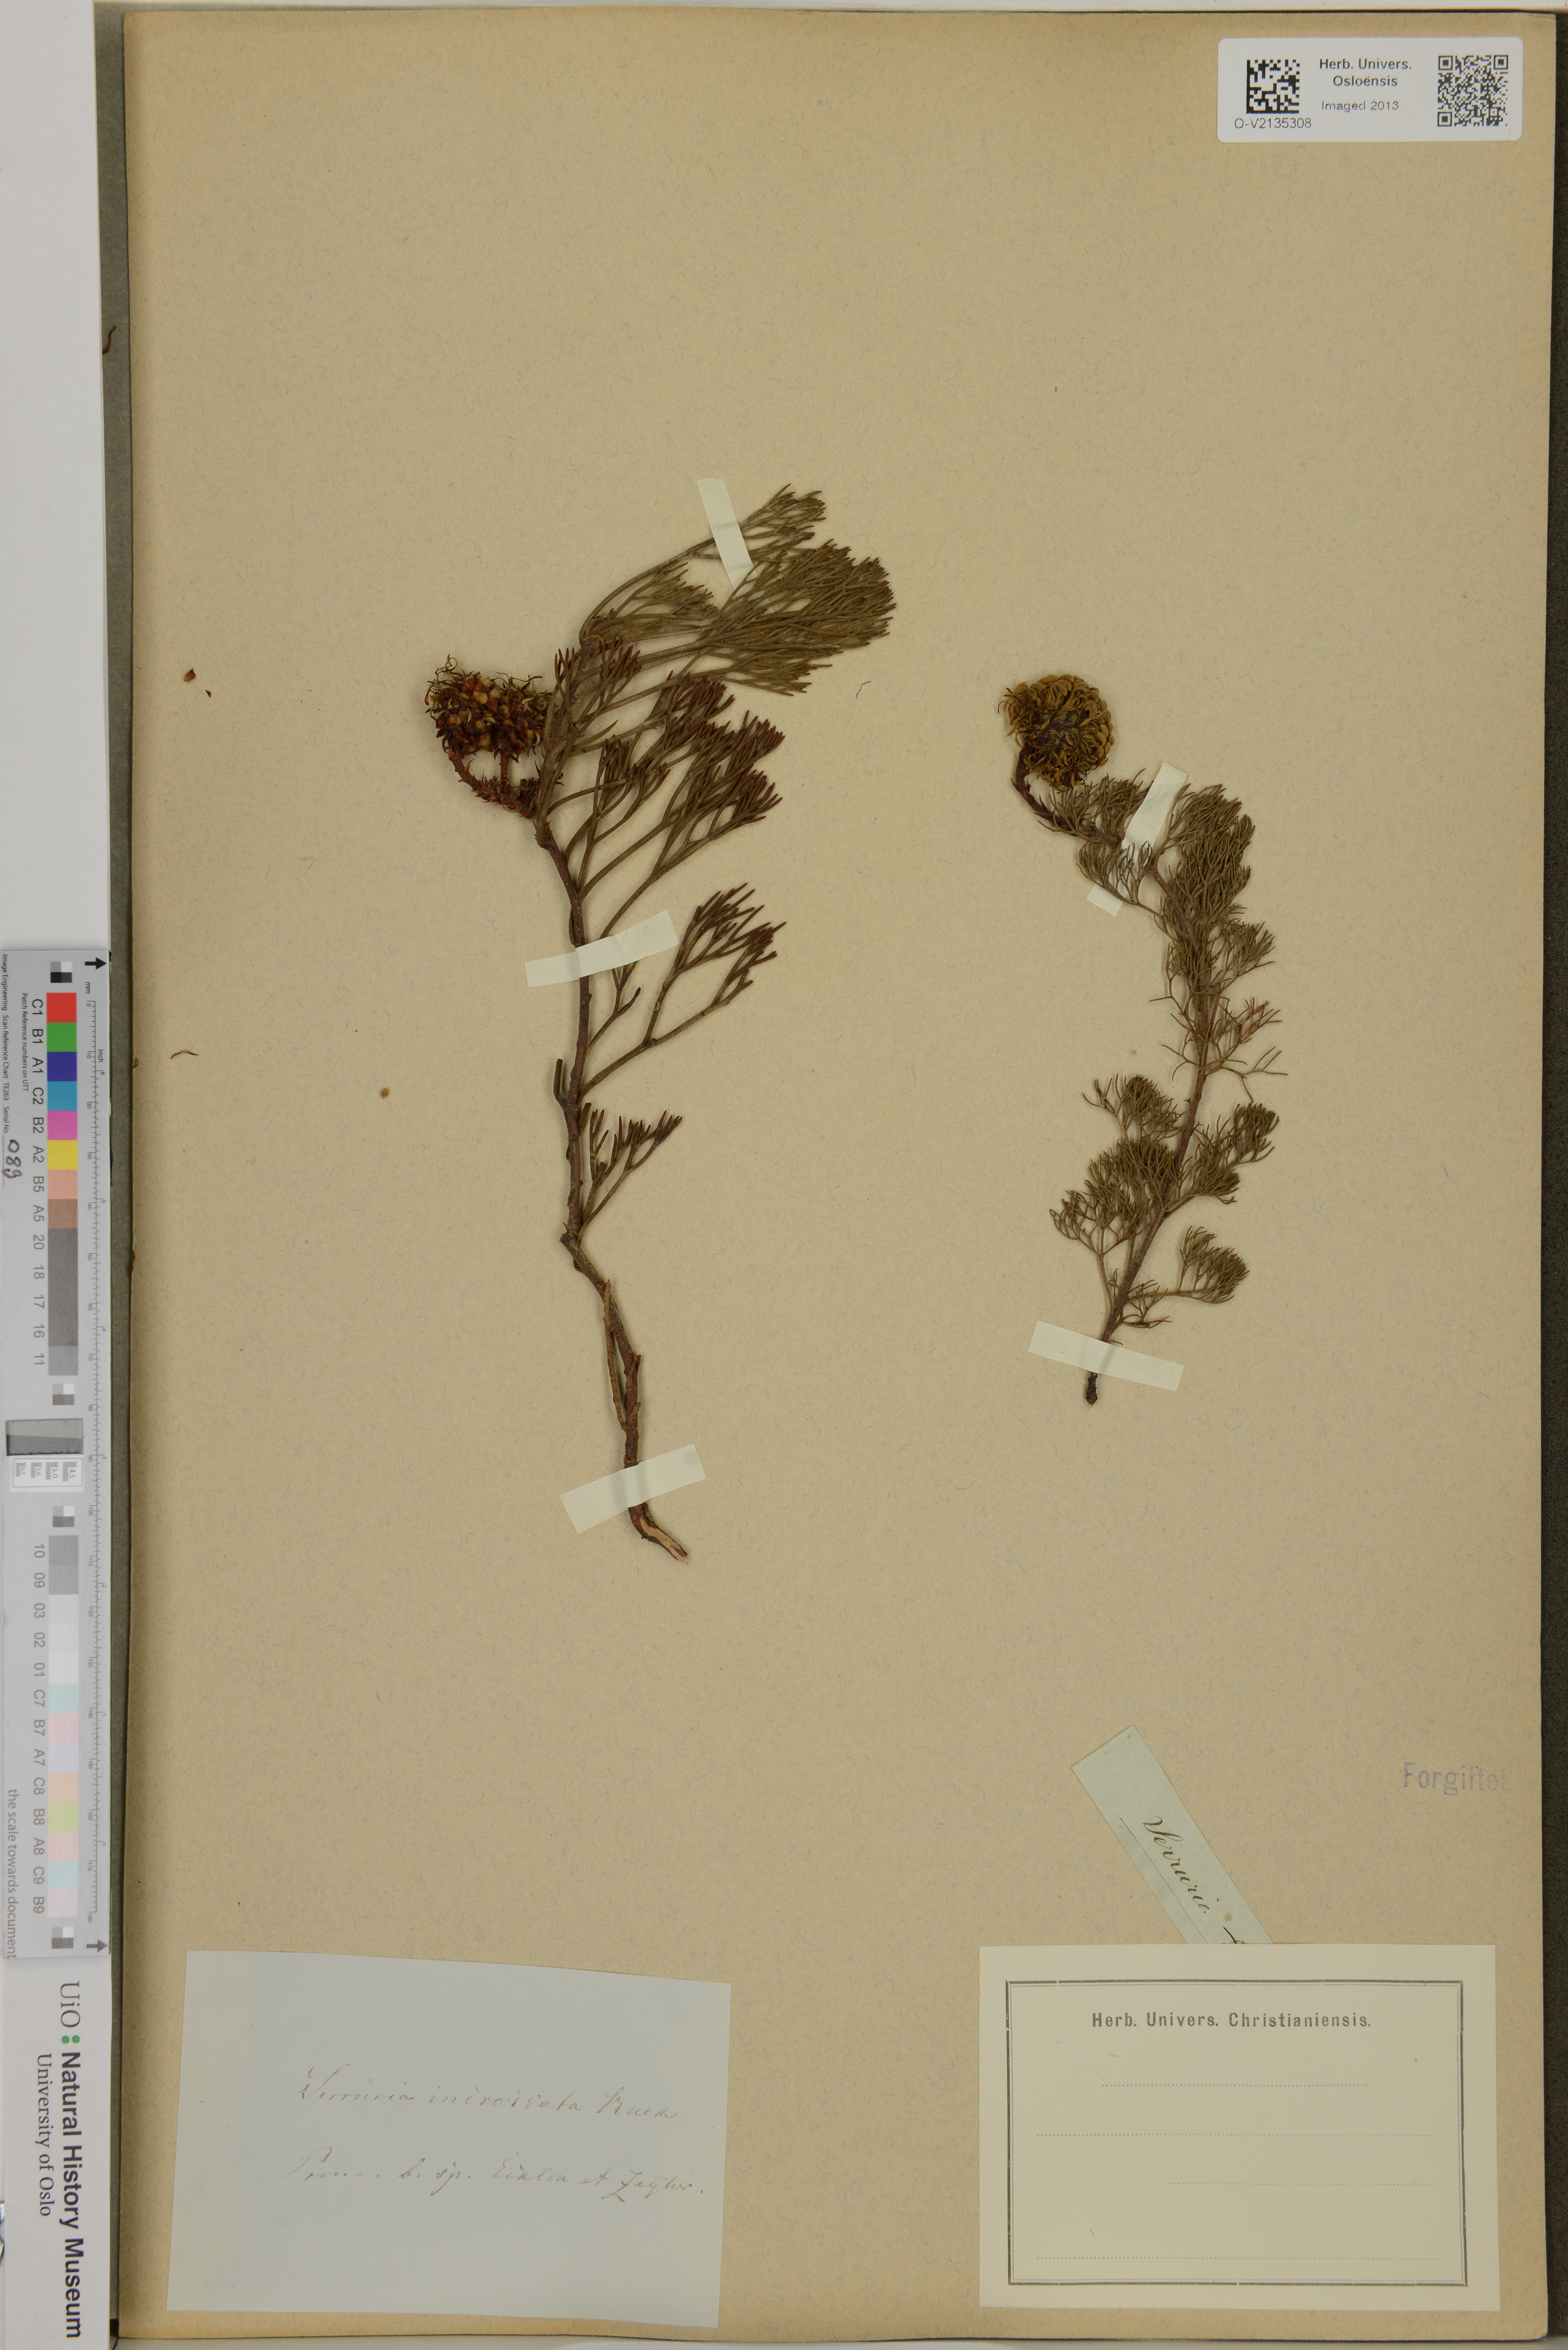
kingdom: Plantae
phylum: Tracheophyta
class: Magnoliopsida
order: Proteales
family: Proteaceae
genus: Serruria
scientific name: Serruria incrassata
